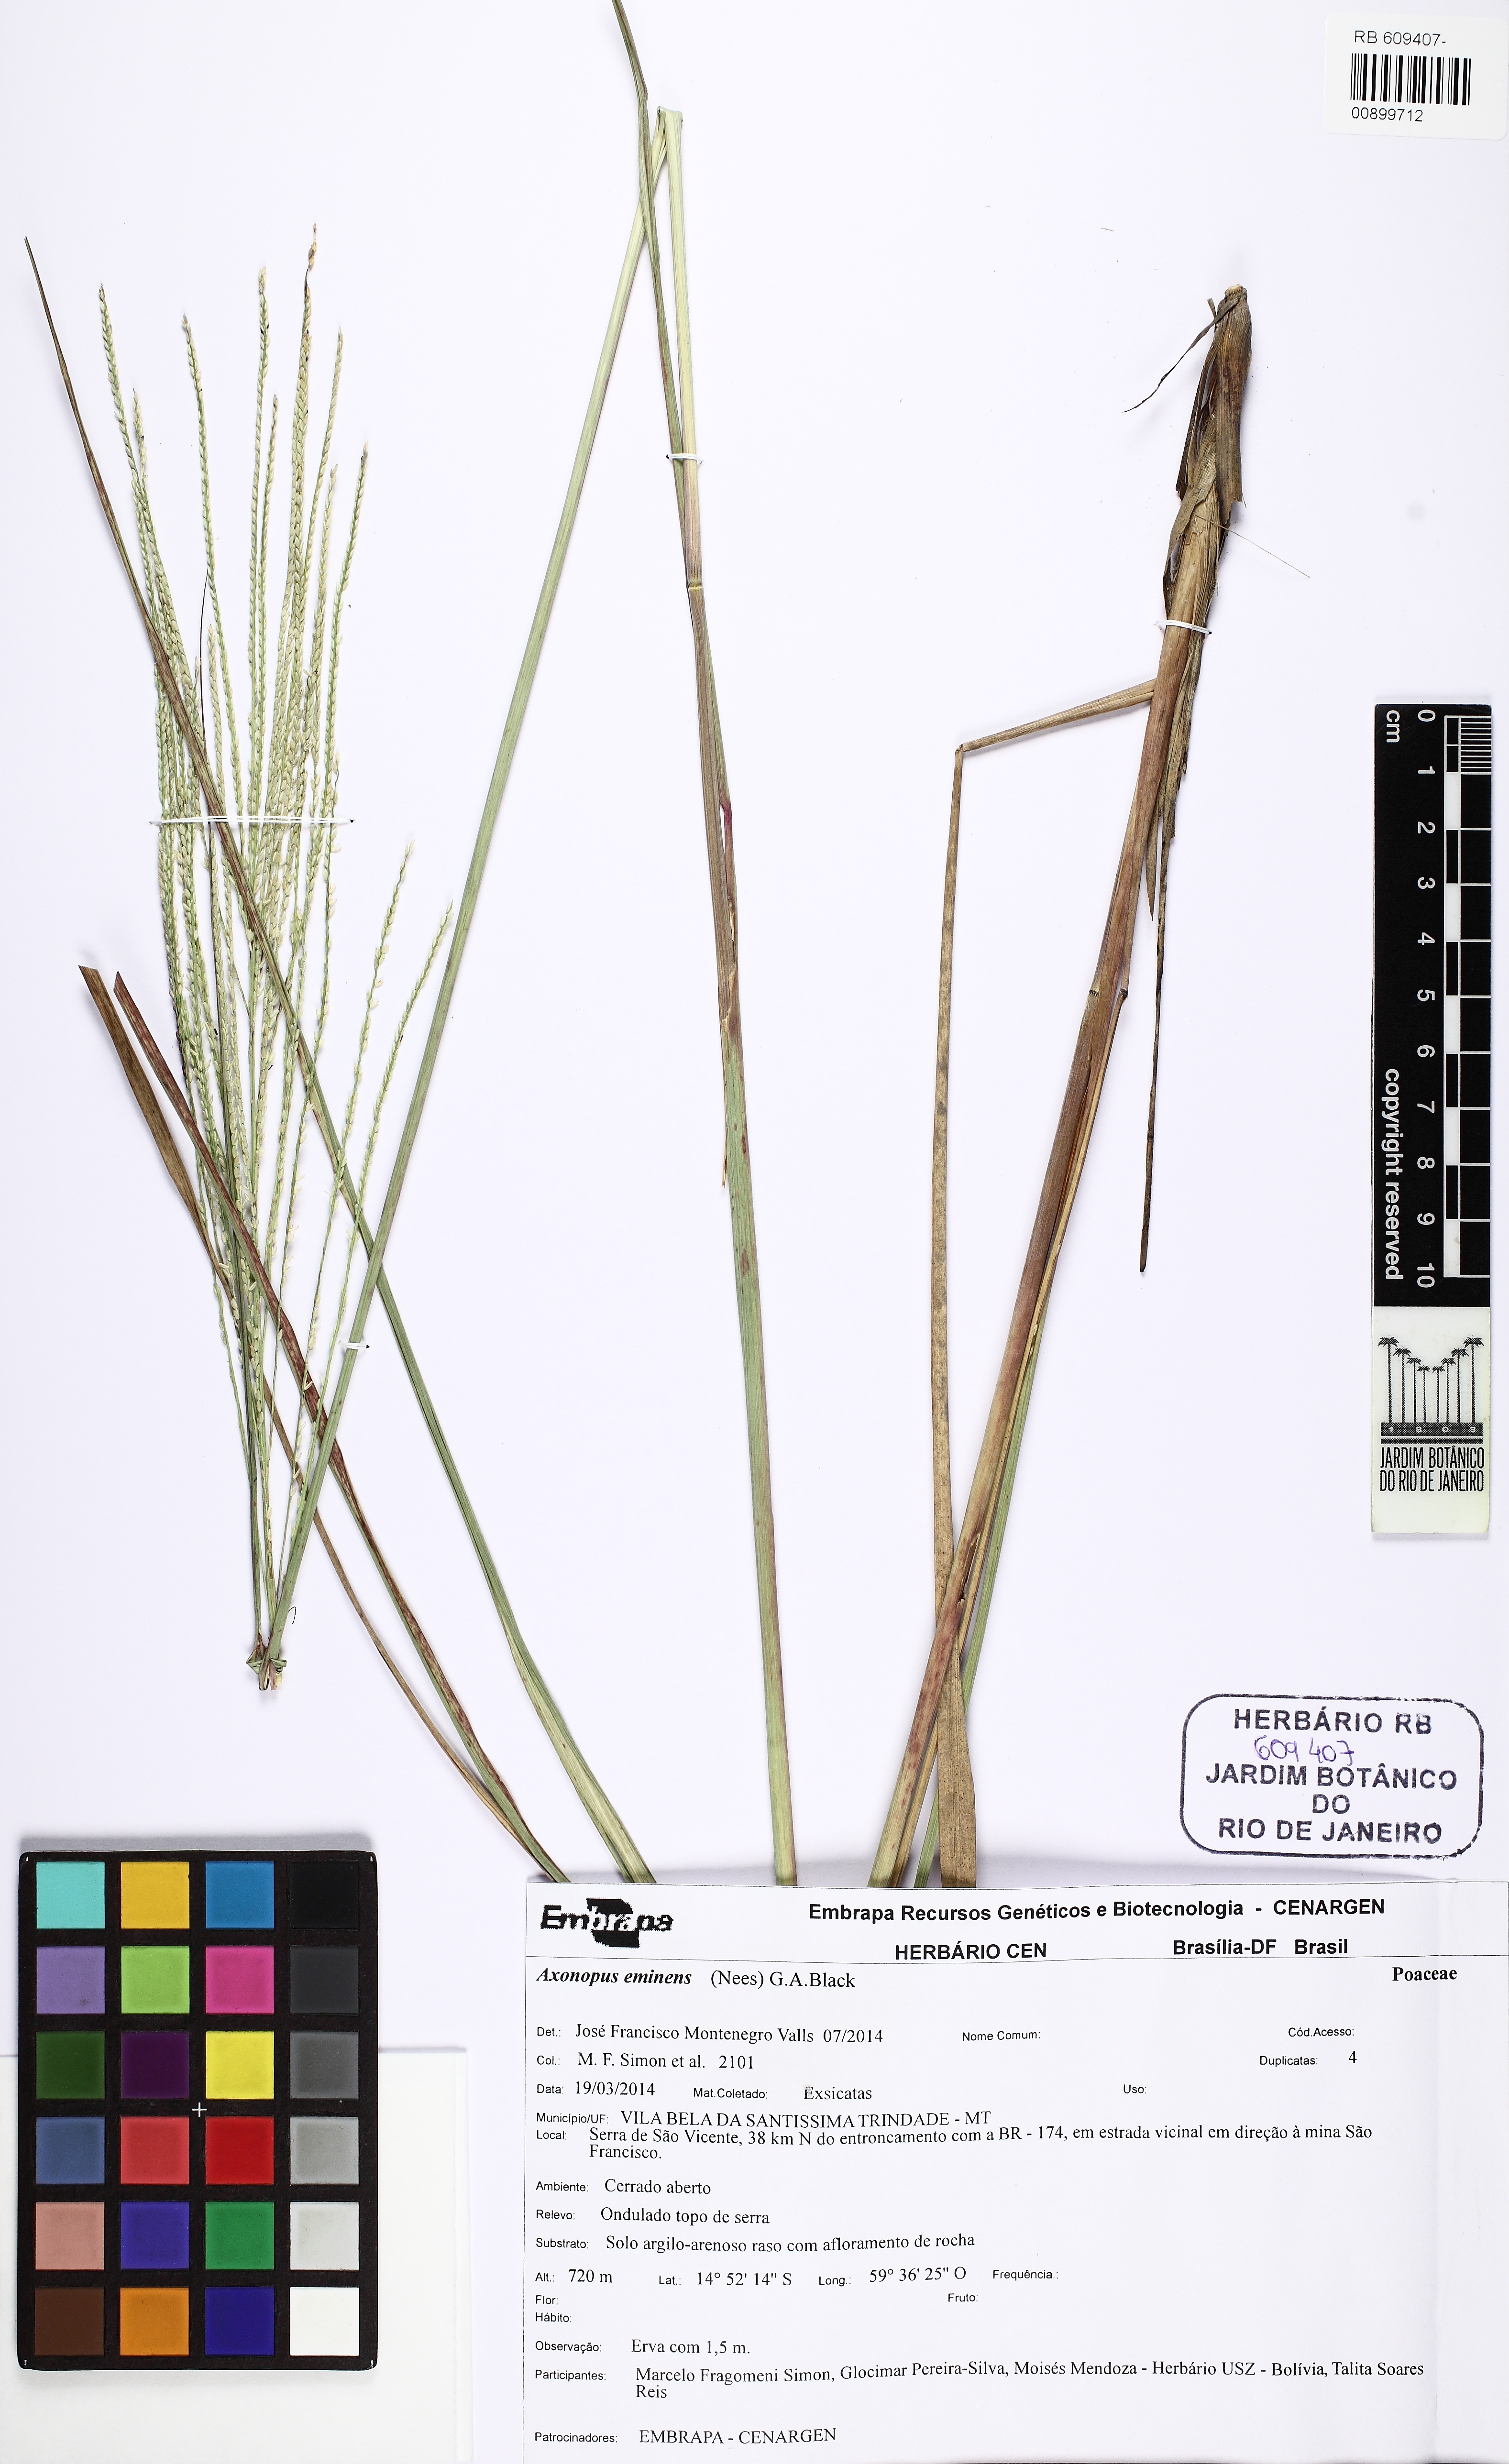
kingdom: Plantae
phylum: Tracheophyta
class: Liliopsida
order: Poales
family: Poaceae
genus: Axonopus
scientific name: Axonopus eminens
